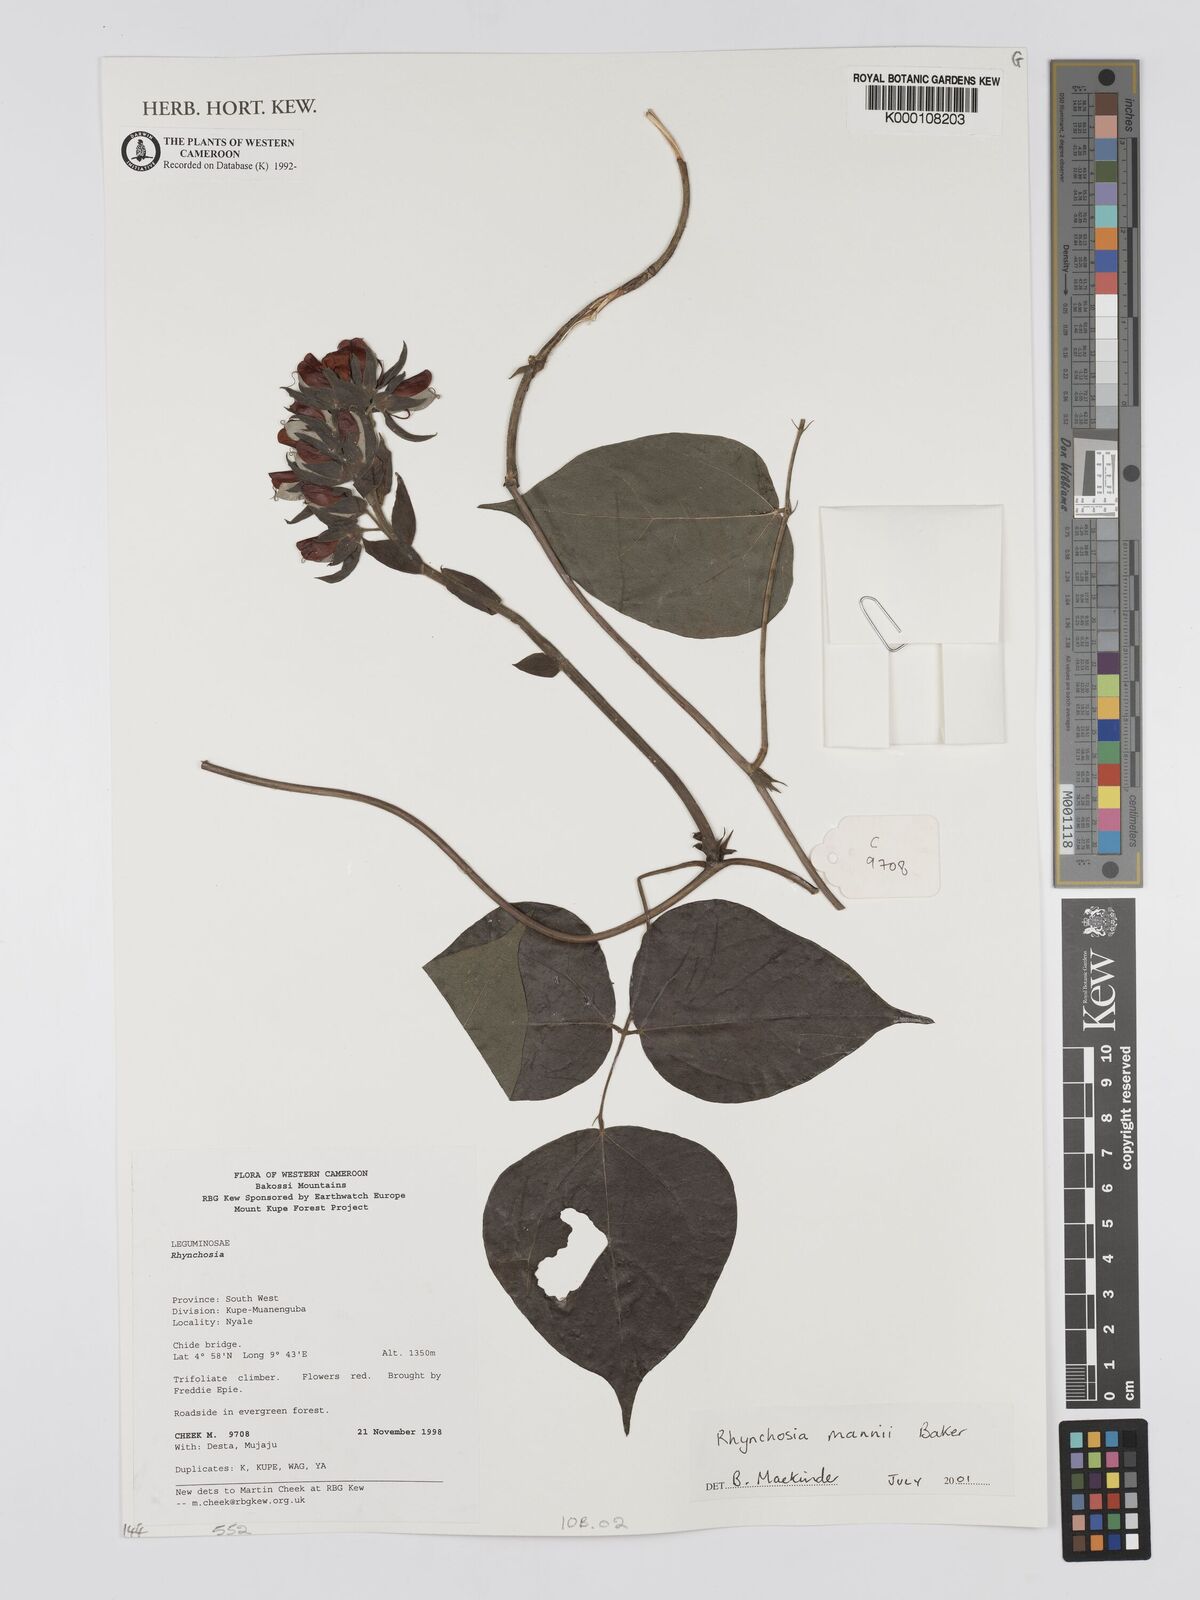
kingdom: Plantae
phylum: Tracheophyta
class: Magnoliopsida
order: Fabales
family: Fabaceae
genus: Rhynchosia
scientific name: Rhynchosia mannii
